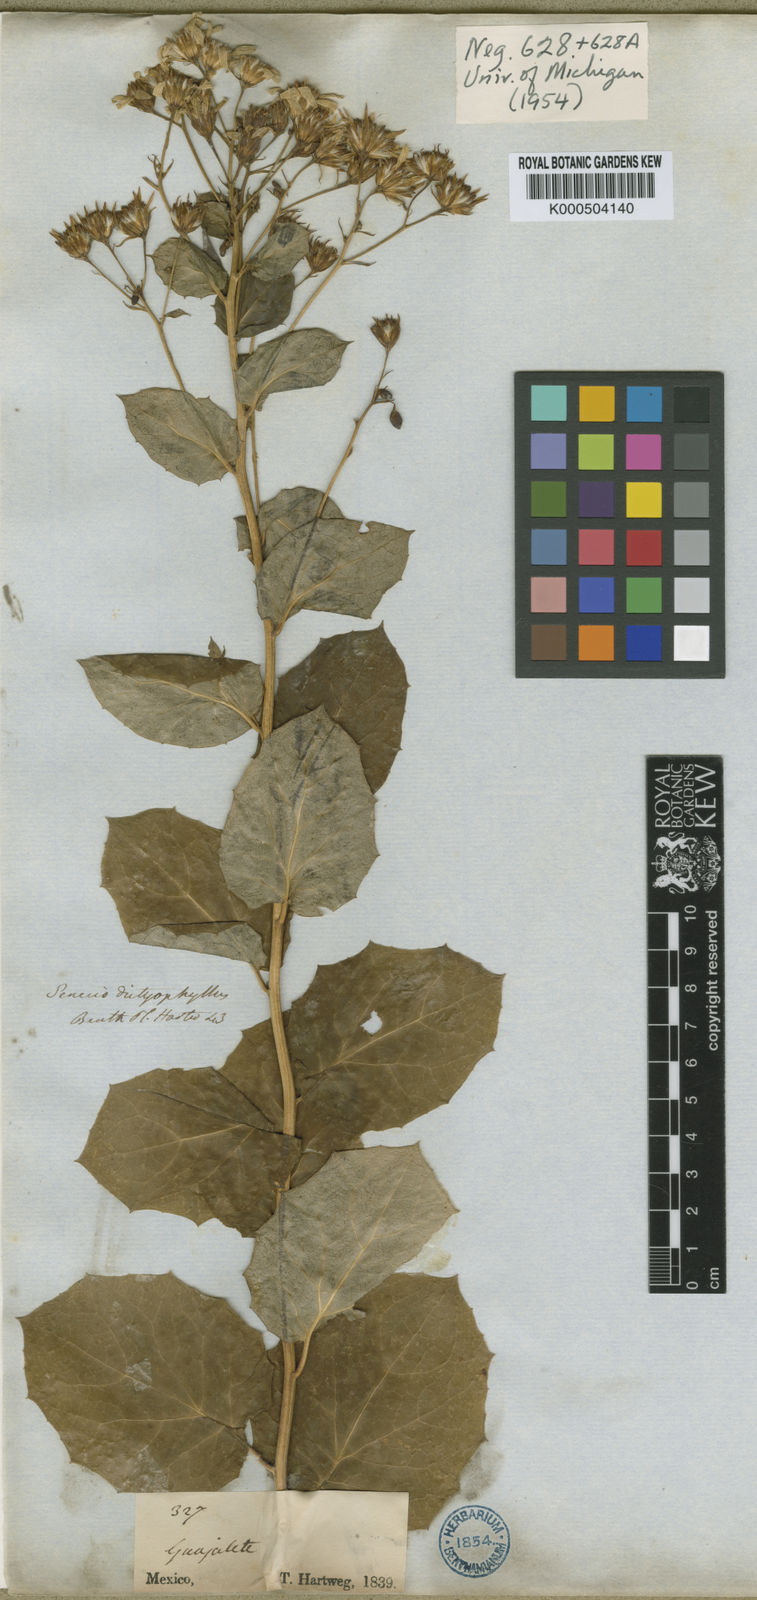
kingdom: Plantae
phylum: Tracheophyta
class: Magnoliopsida
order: Asterales
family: Asteraceae
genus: Roldana
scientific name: Roldana reticulata
